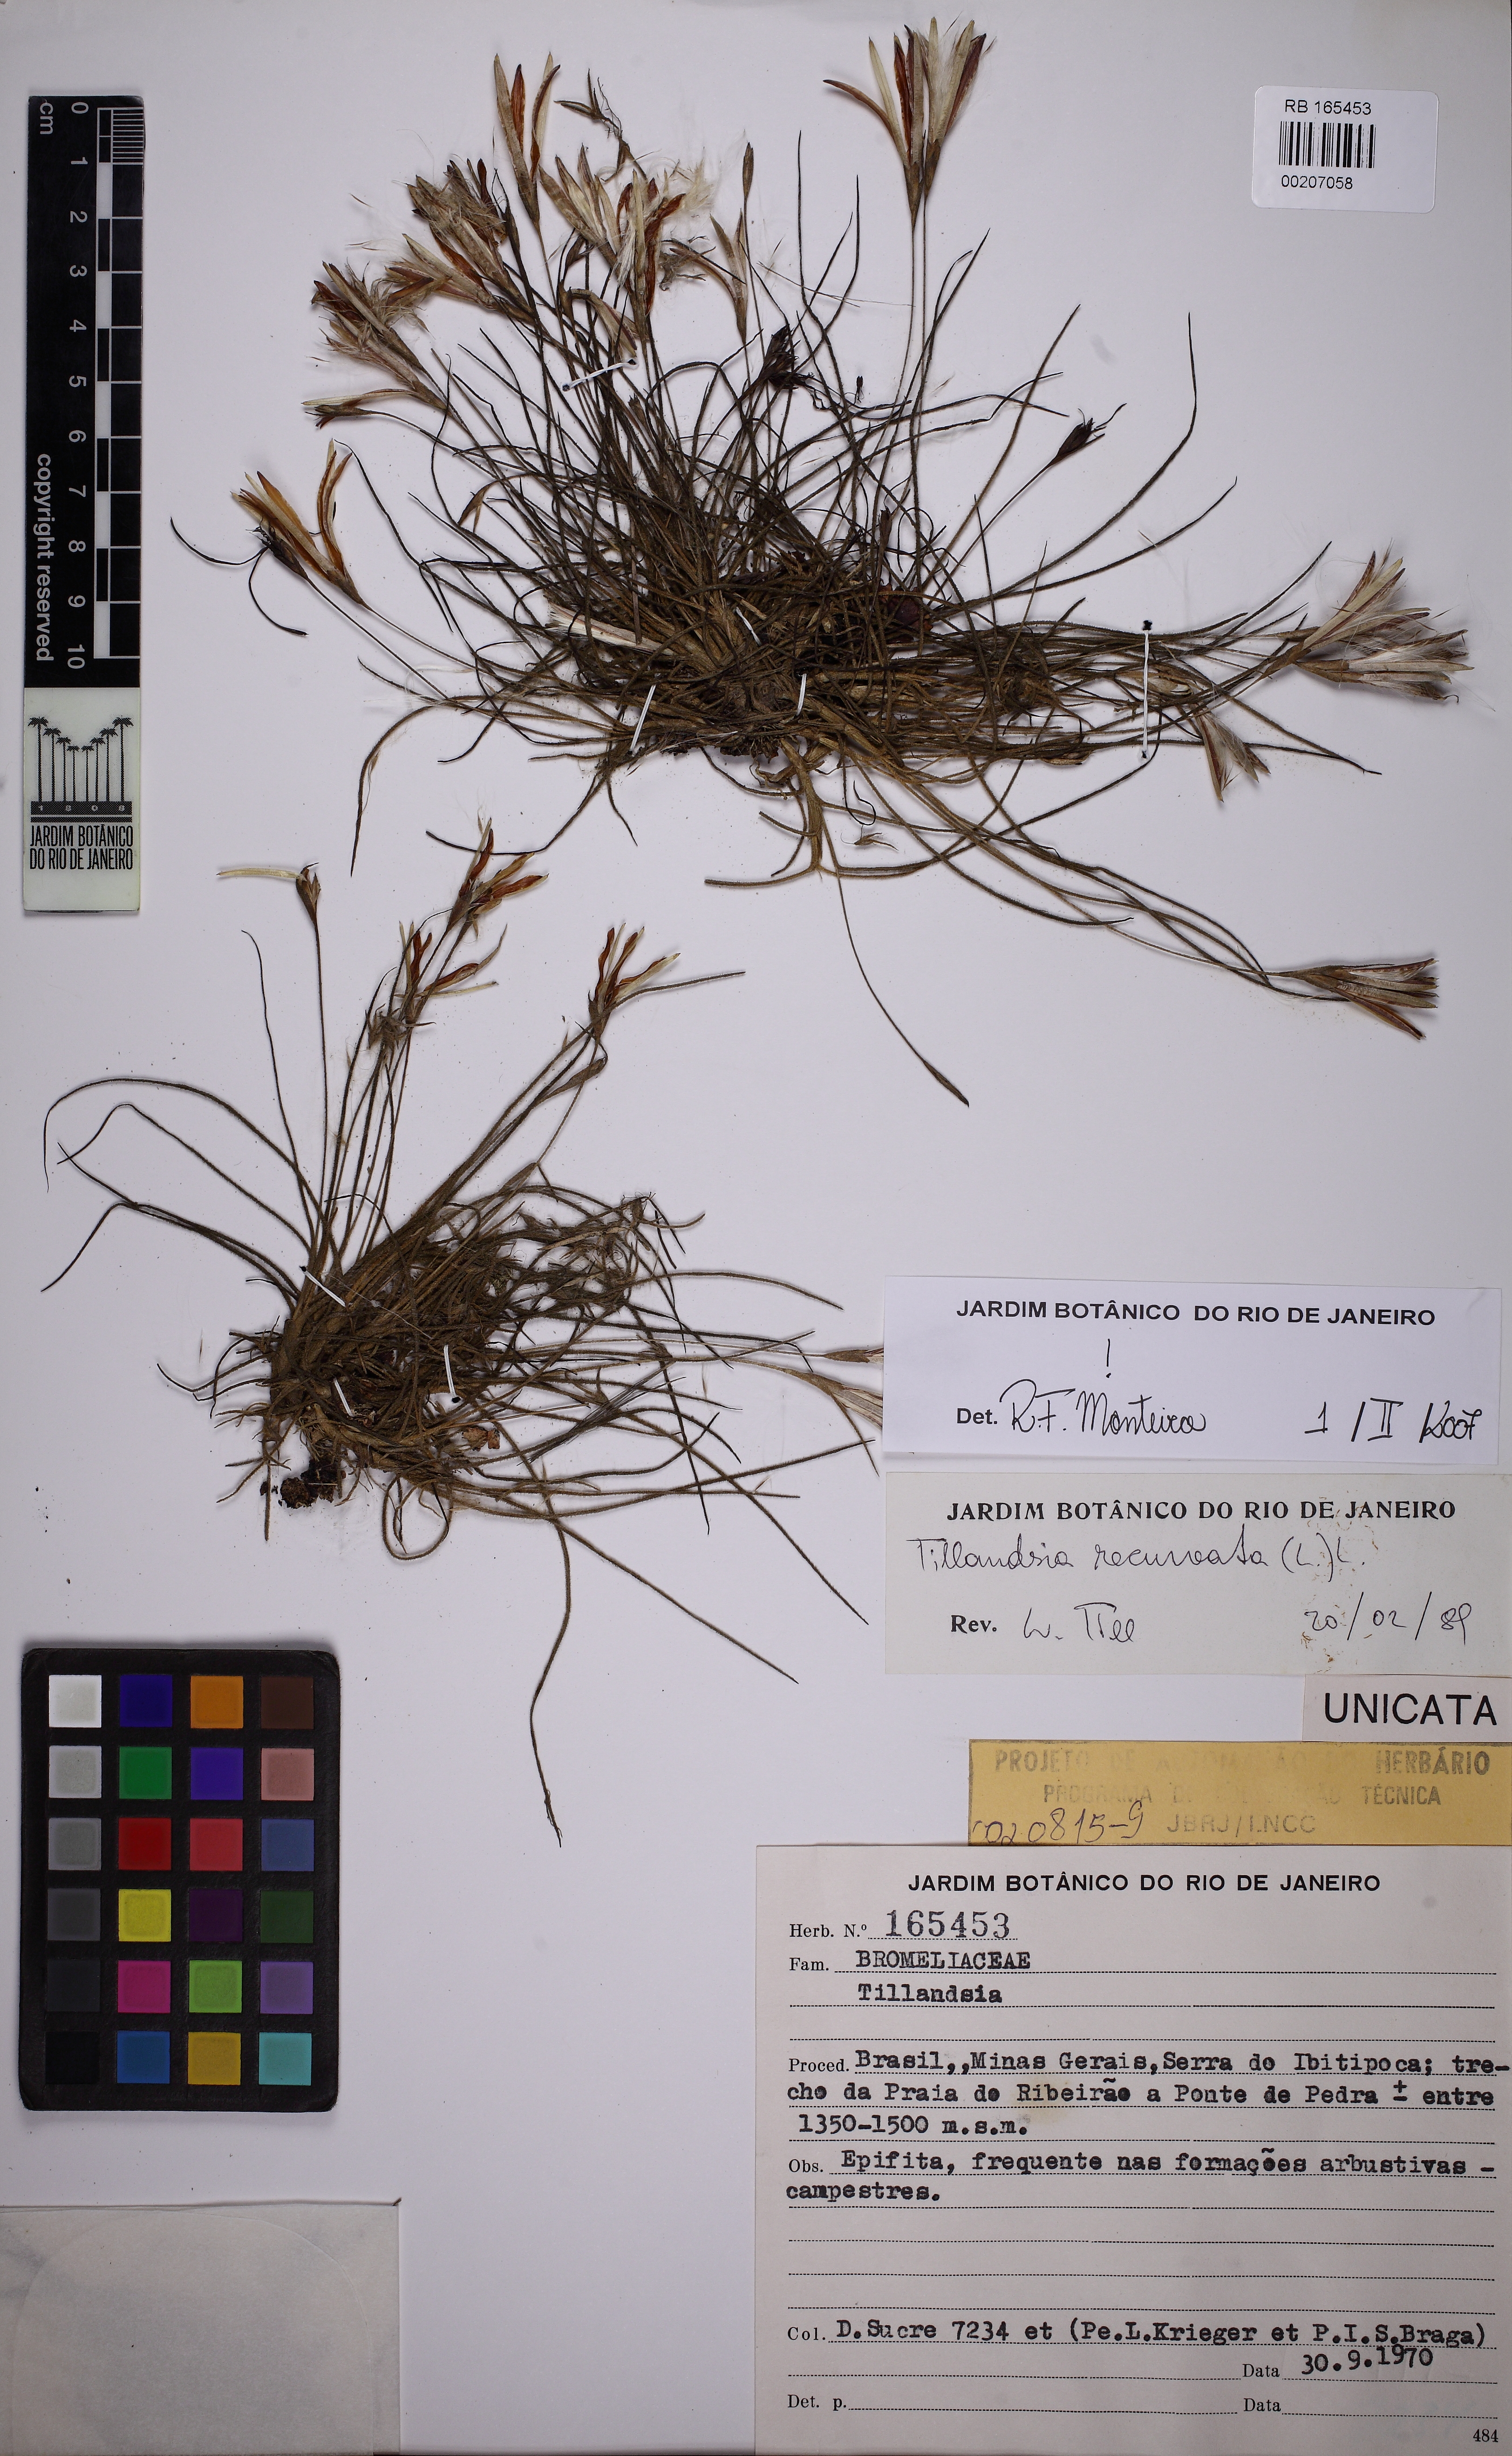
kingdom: Plantae
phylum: Tracheophyta
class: Liliopsida
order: Poales
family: Bromeliaceae
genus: Tillandsia
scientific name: Tillandsia recurvata
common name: Small ballmoss
